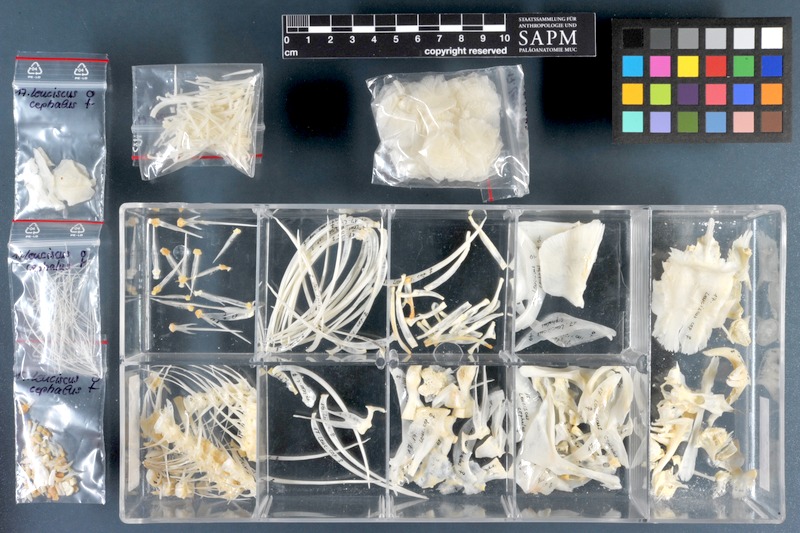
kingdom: Animalia
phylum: Chordata
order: Cypriniformes
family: Cyprinidae
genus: Squalius
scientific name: Squalius cephalus
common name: Chub
